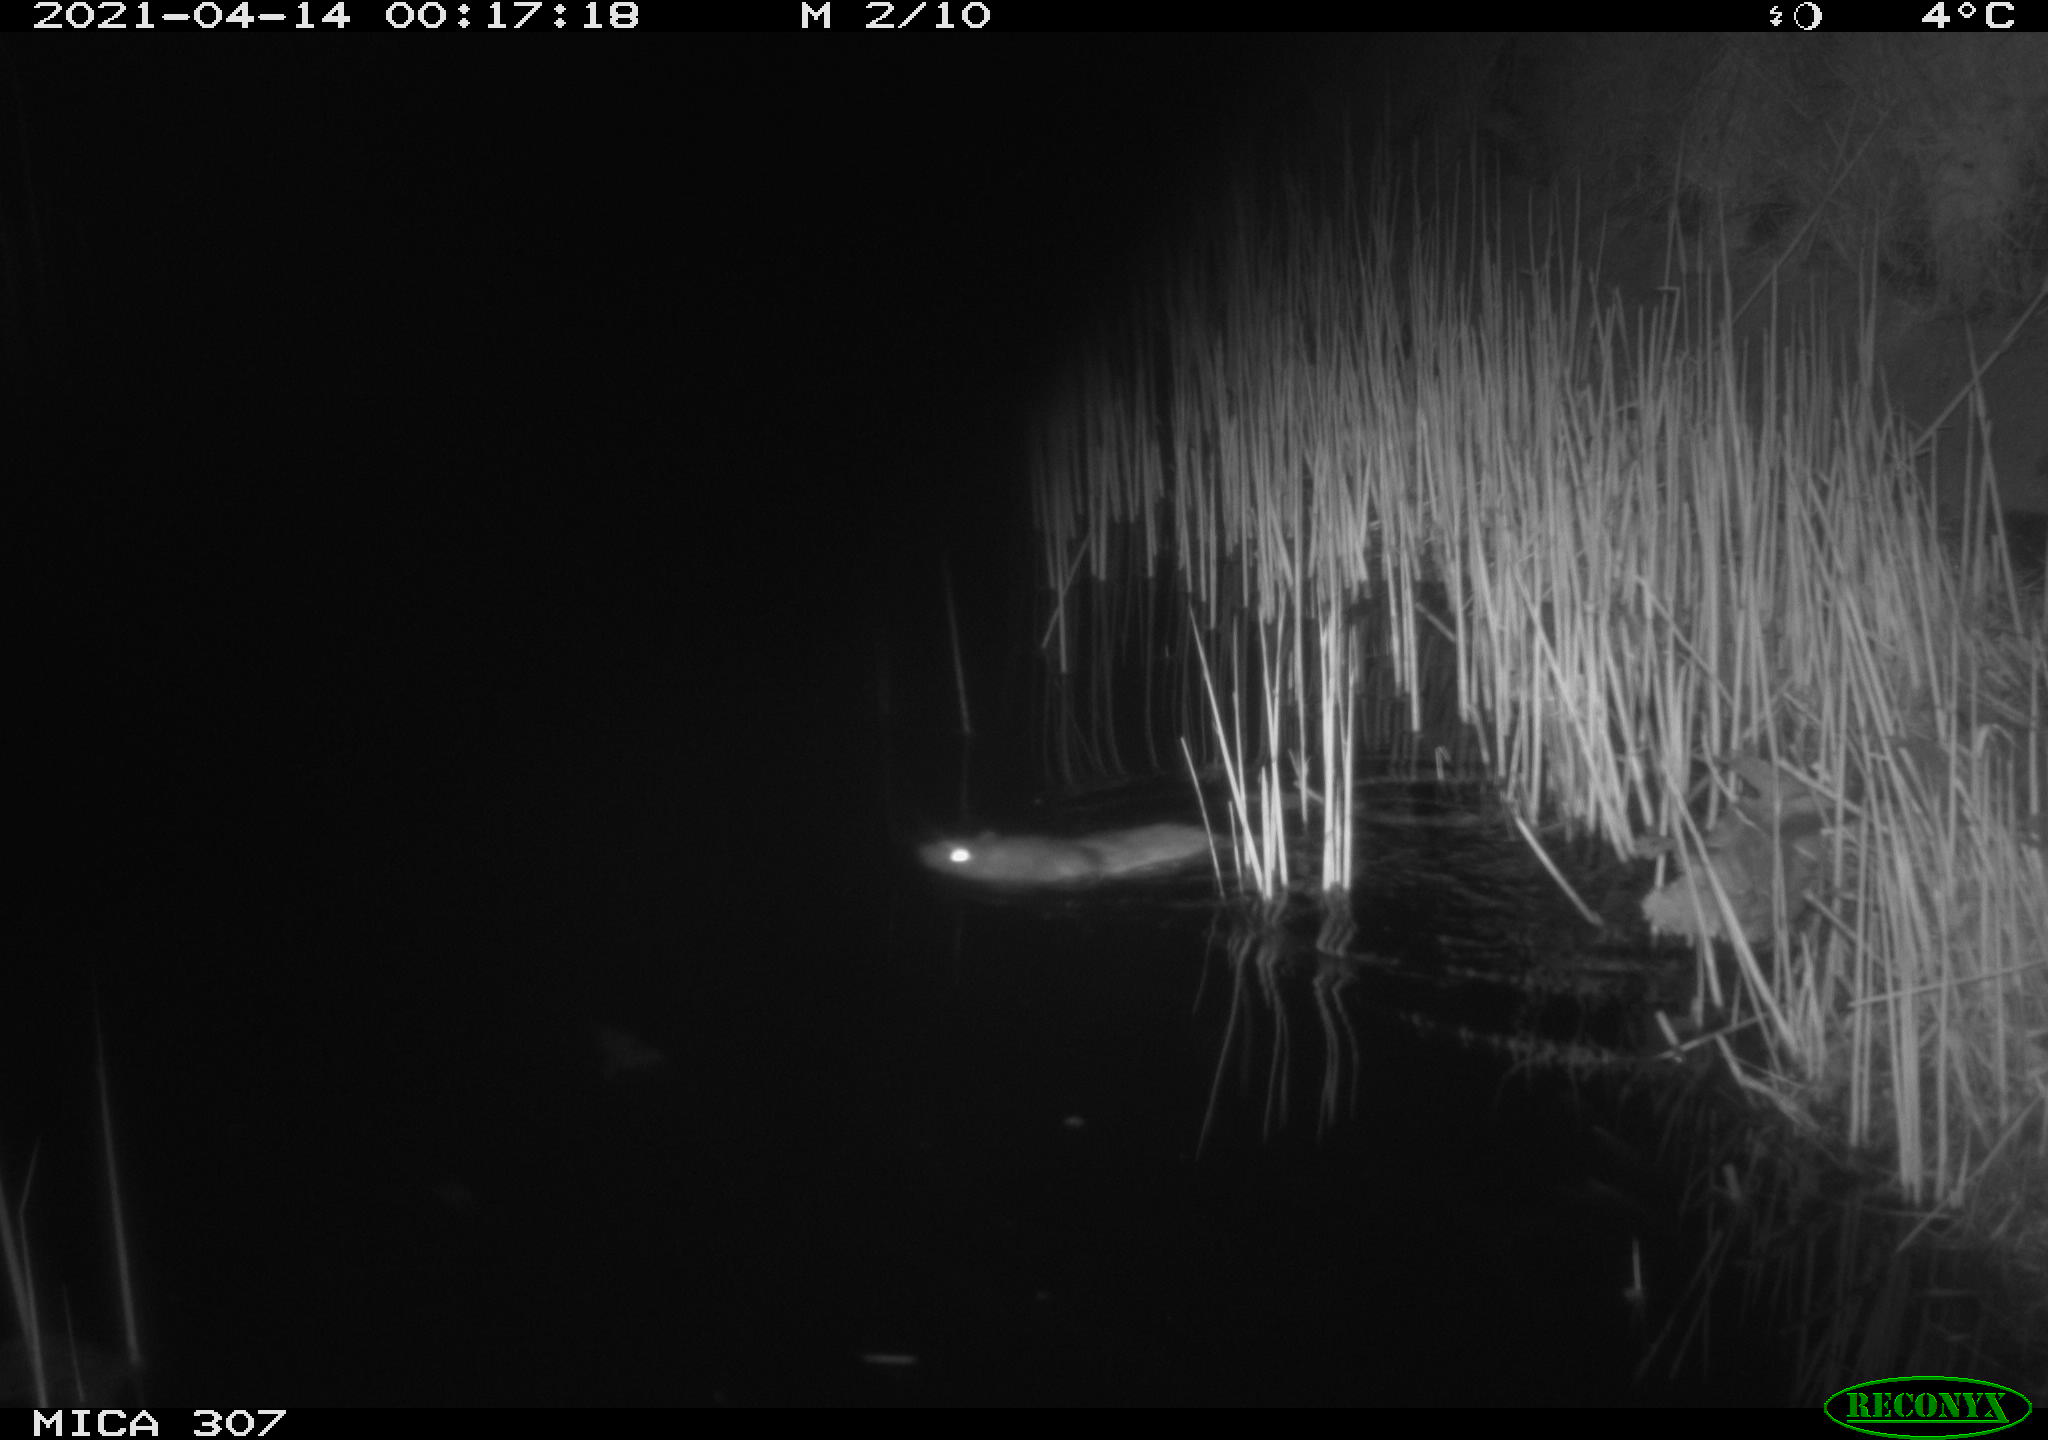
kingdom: Animalia
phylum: Chordata
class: Mammalia
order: Rodentia
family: Muridae
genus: Rattus
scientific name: Rattus norvegicus
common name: Brown rat
